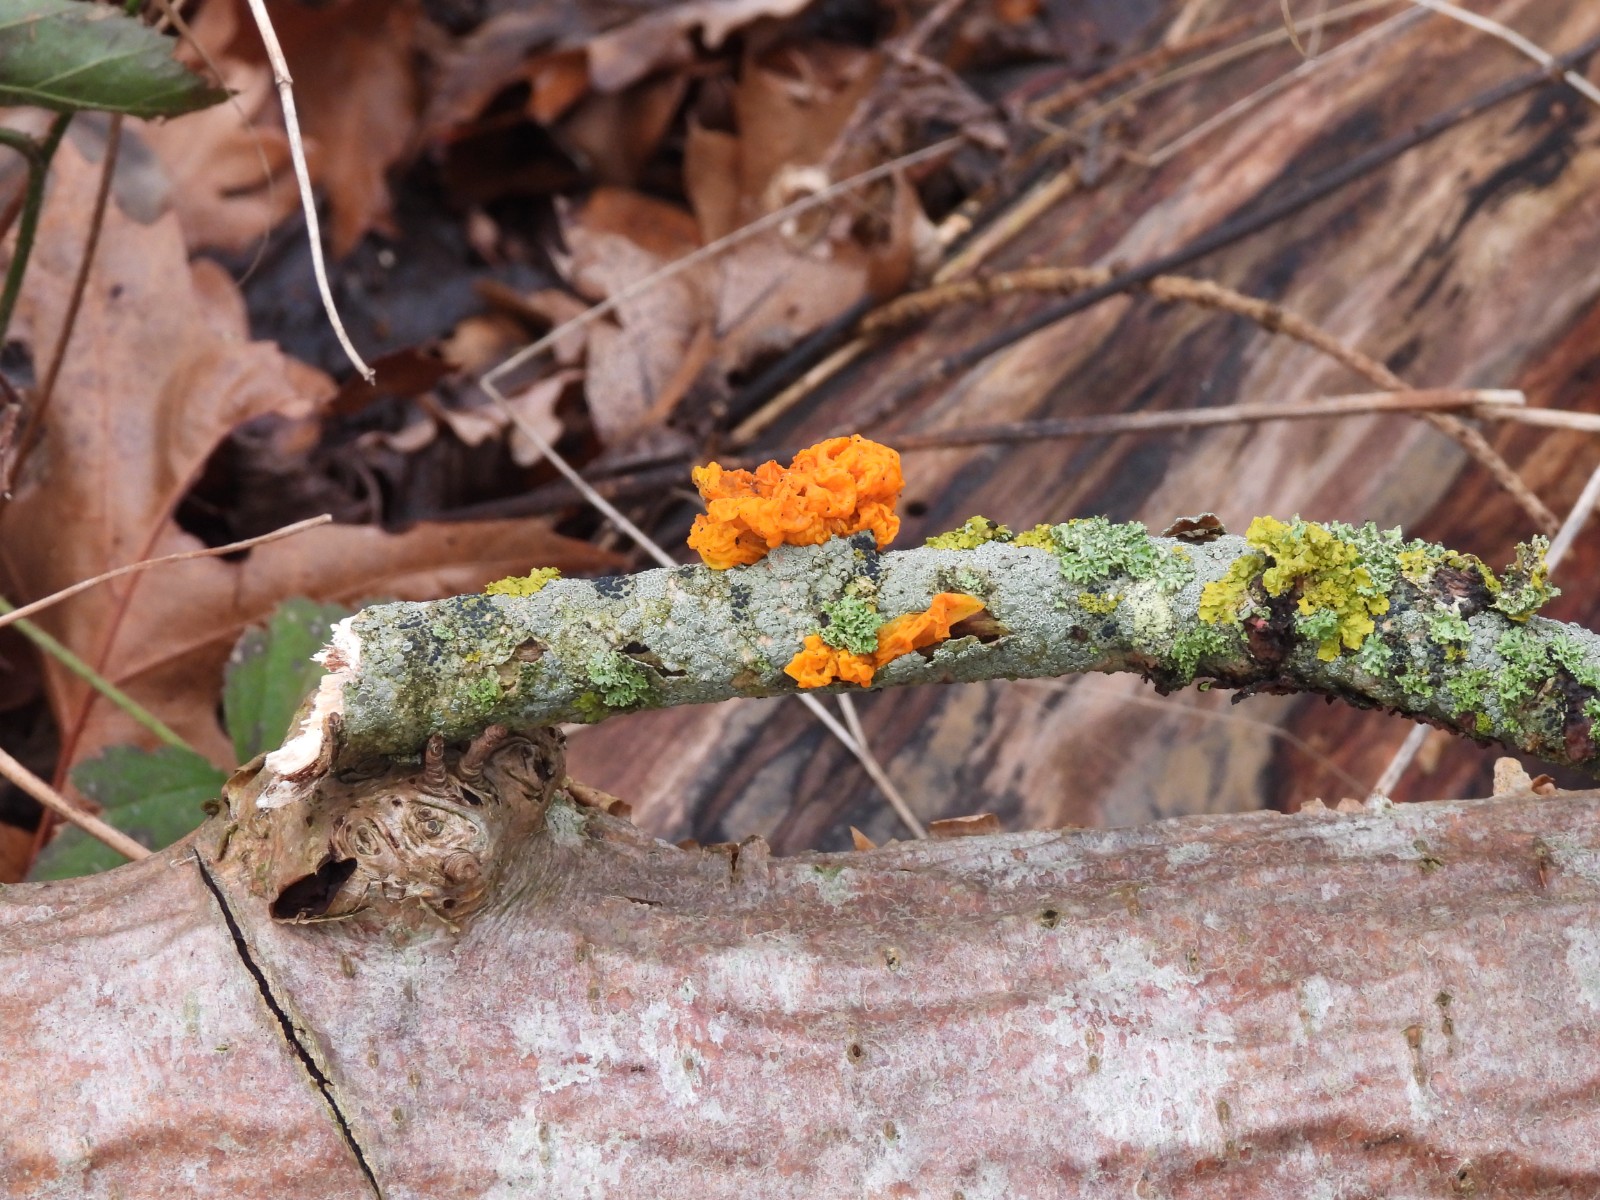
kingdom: Fungi
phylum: Basidiomycota
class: Tremellomycetes
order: Tremellales
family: Tremellaceae
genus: Tremella
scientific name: Tremella mesenterica
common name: gul bævresvamp
